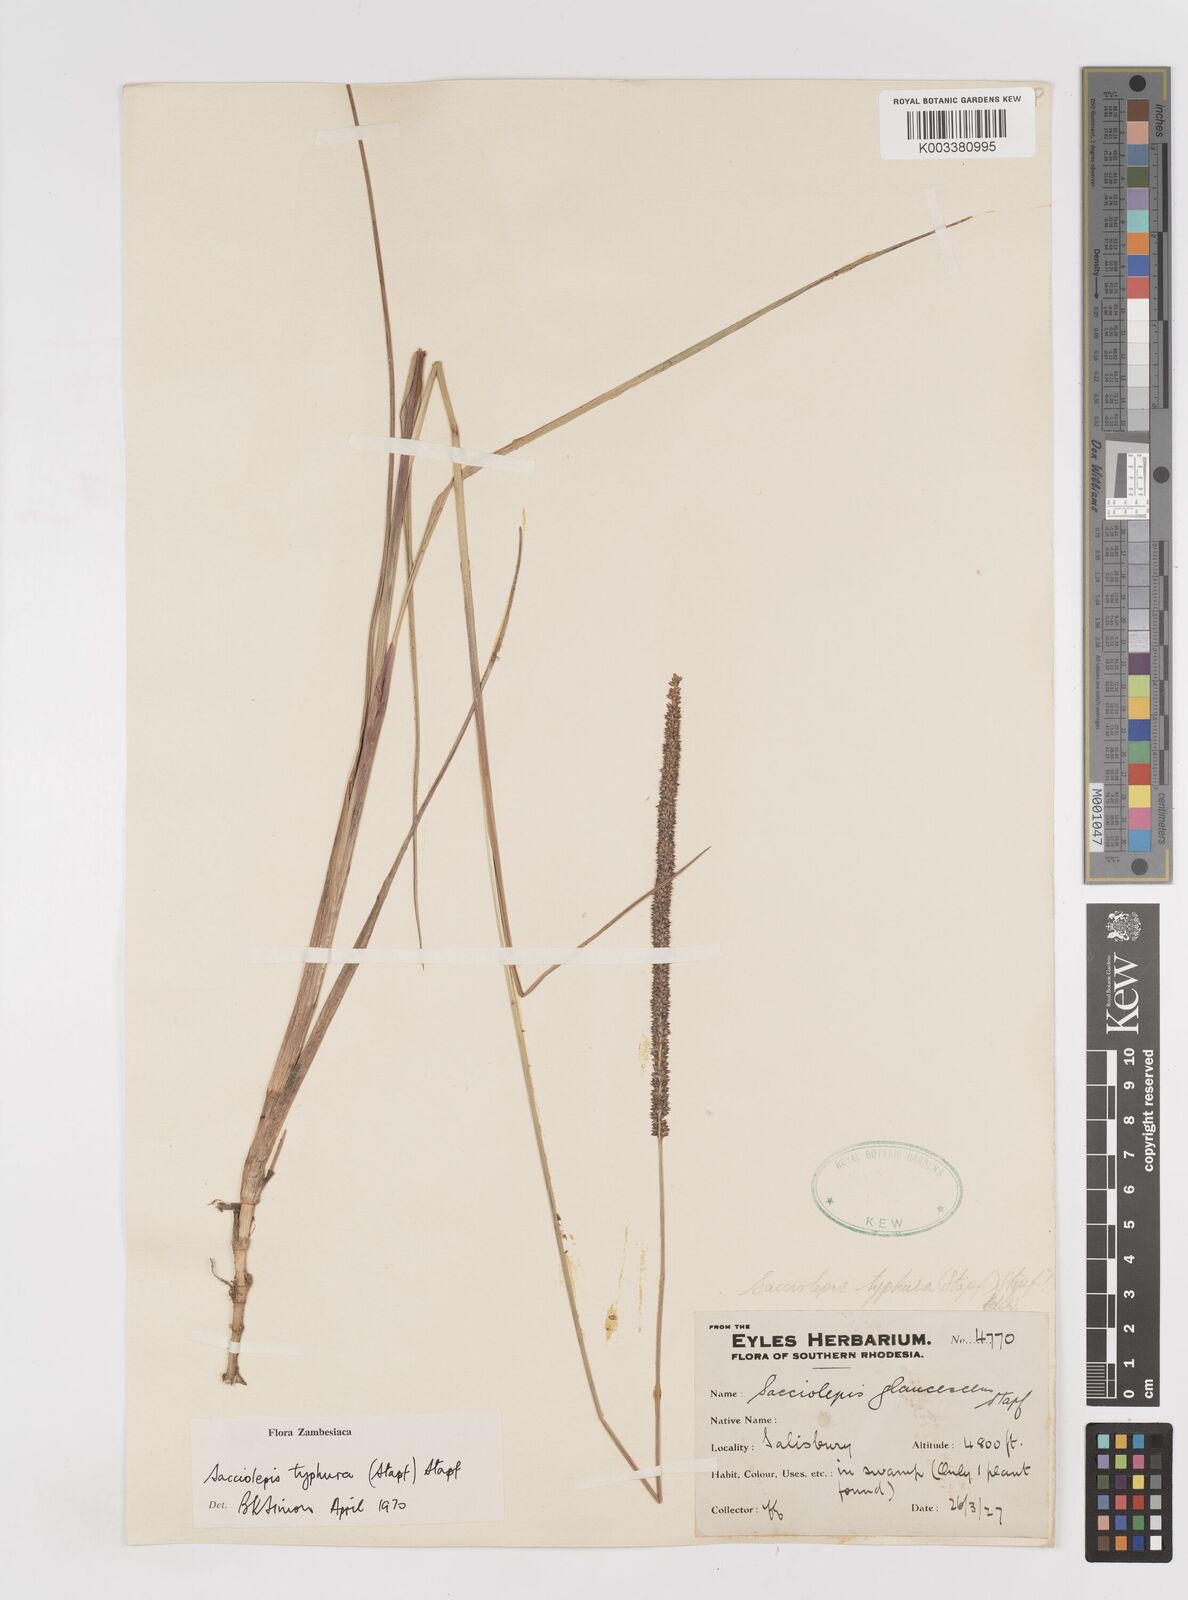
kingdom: Plantae
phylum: Tracheophyta
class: Liliopsida
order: Poales
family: Poaceae
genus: Sacciolepis
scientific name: Sacciolepis typhura
